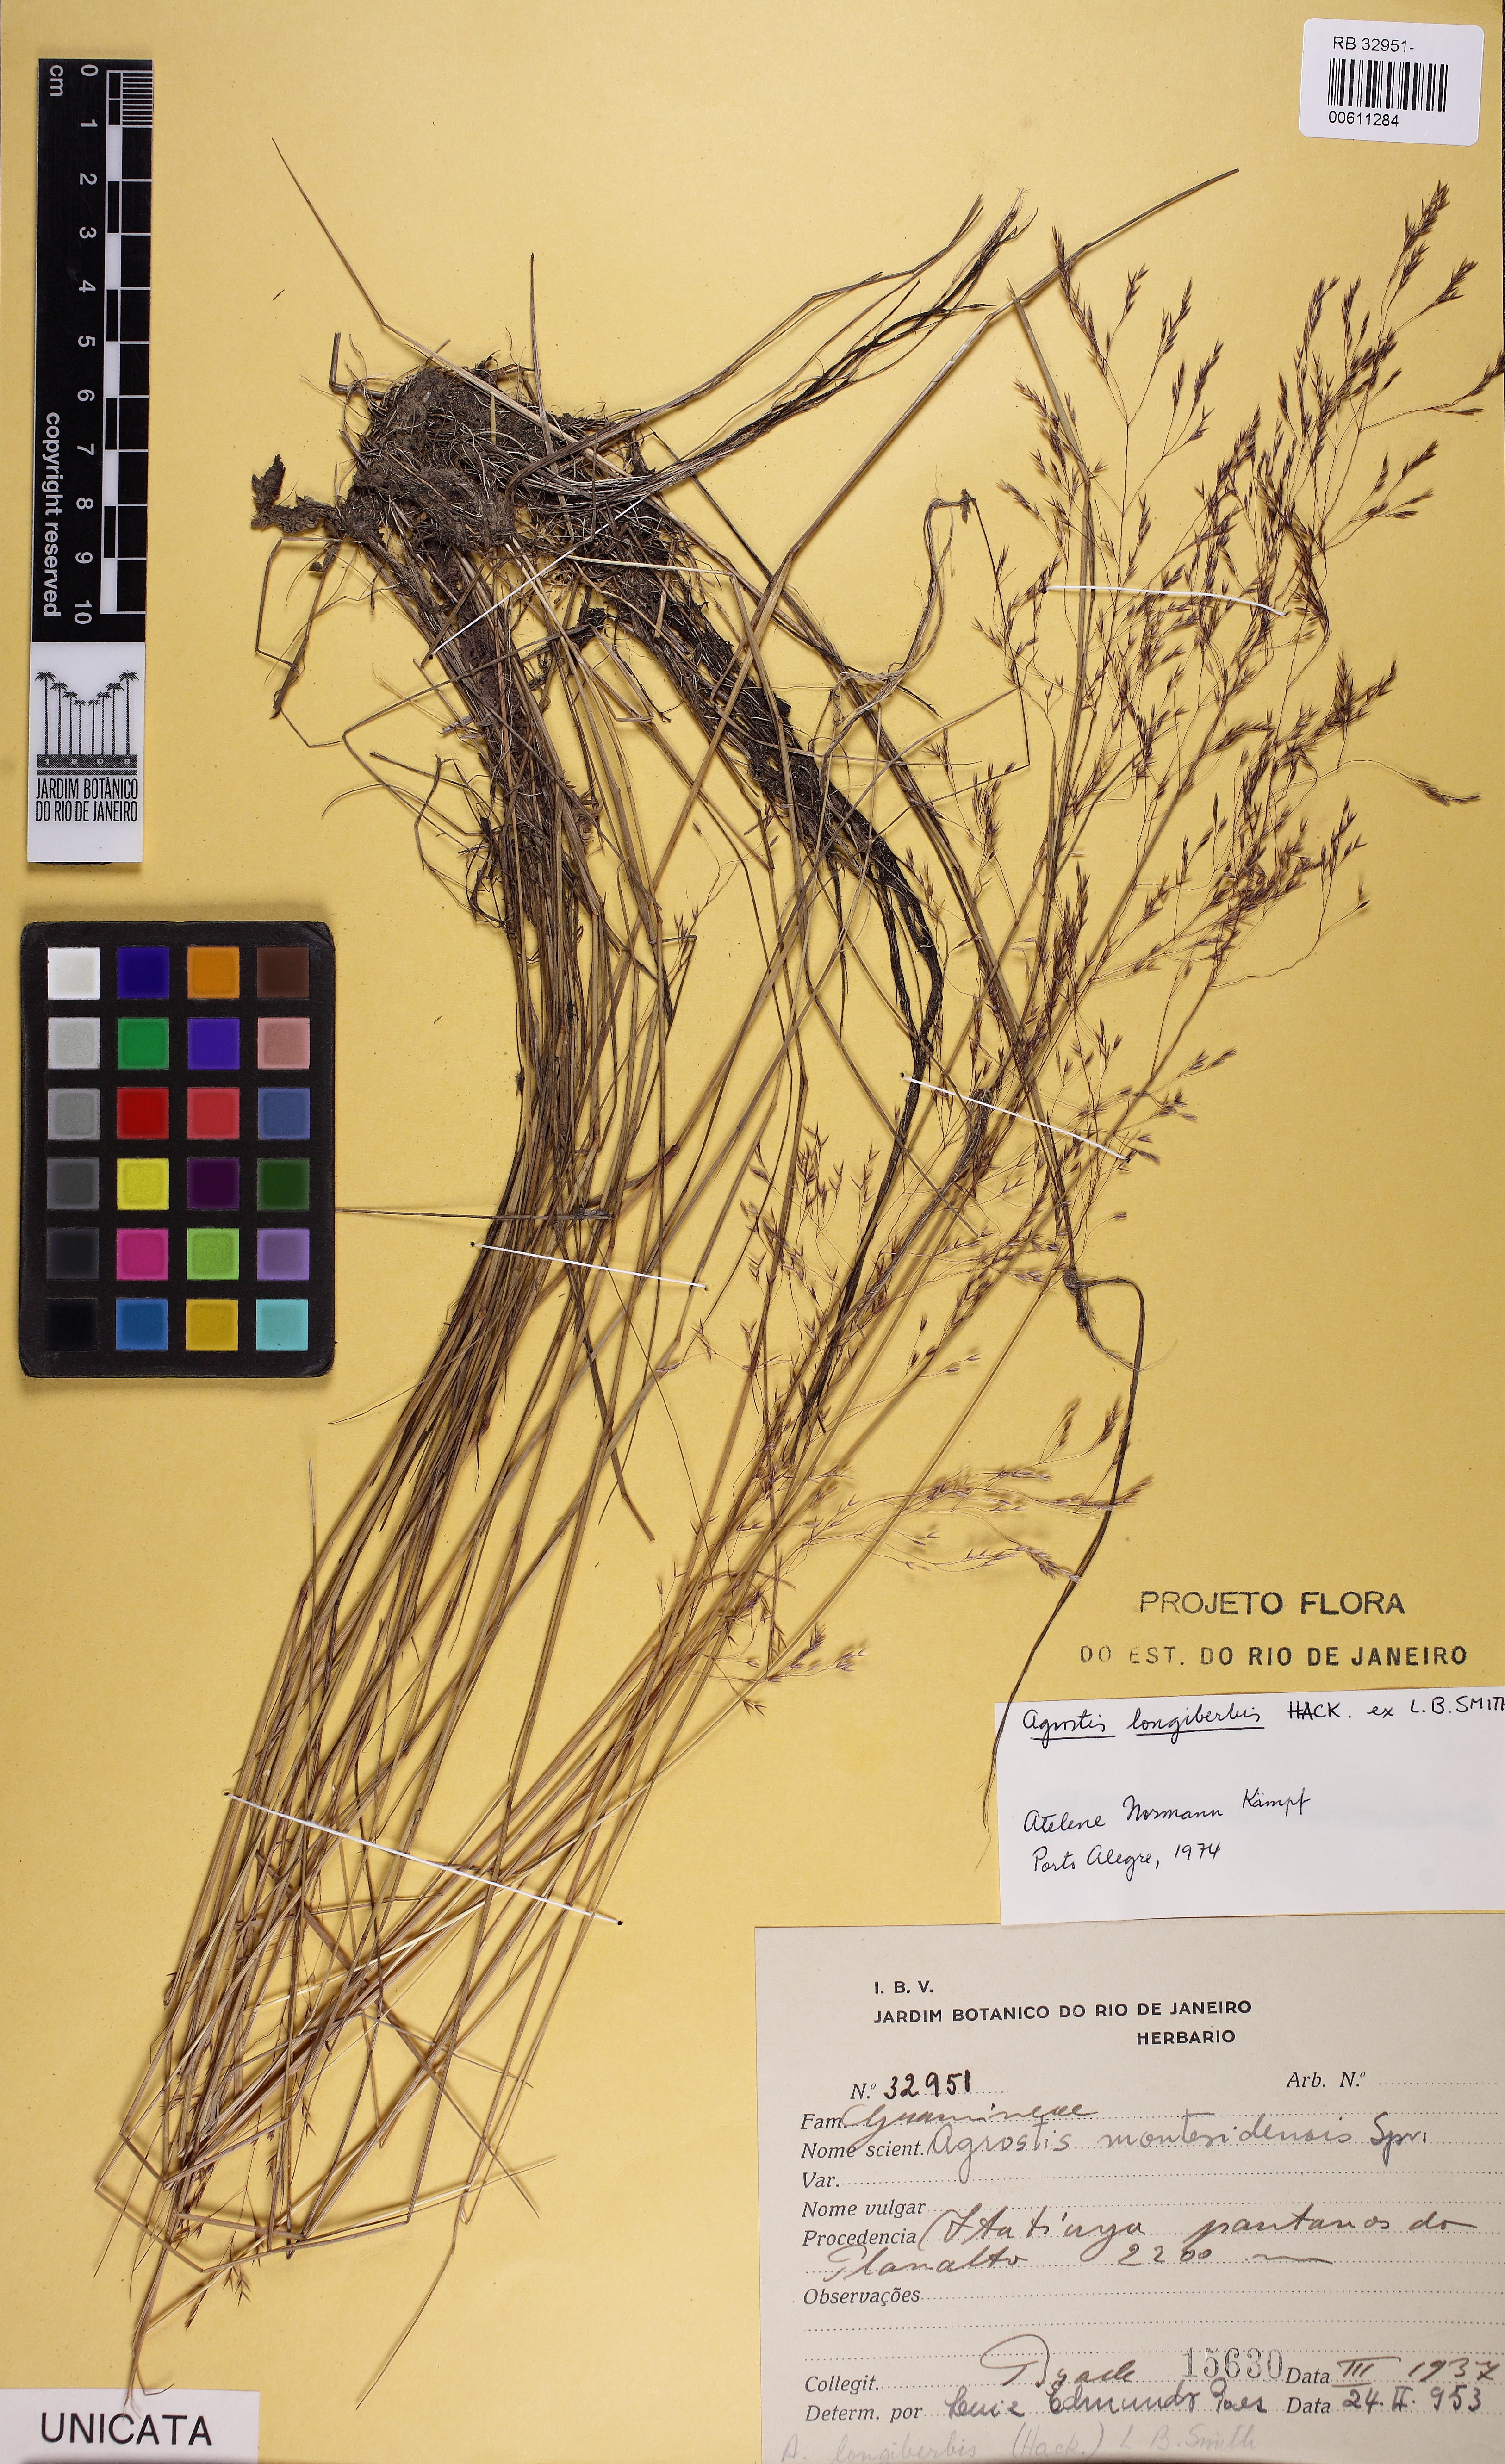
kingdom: Plantae
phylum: Tracheophyta
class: Liliopsida
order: Poales
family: Poaceae
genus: Agrostis
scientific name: Agrostis longiberbis
